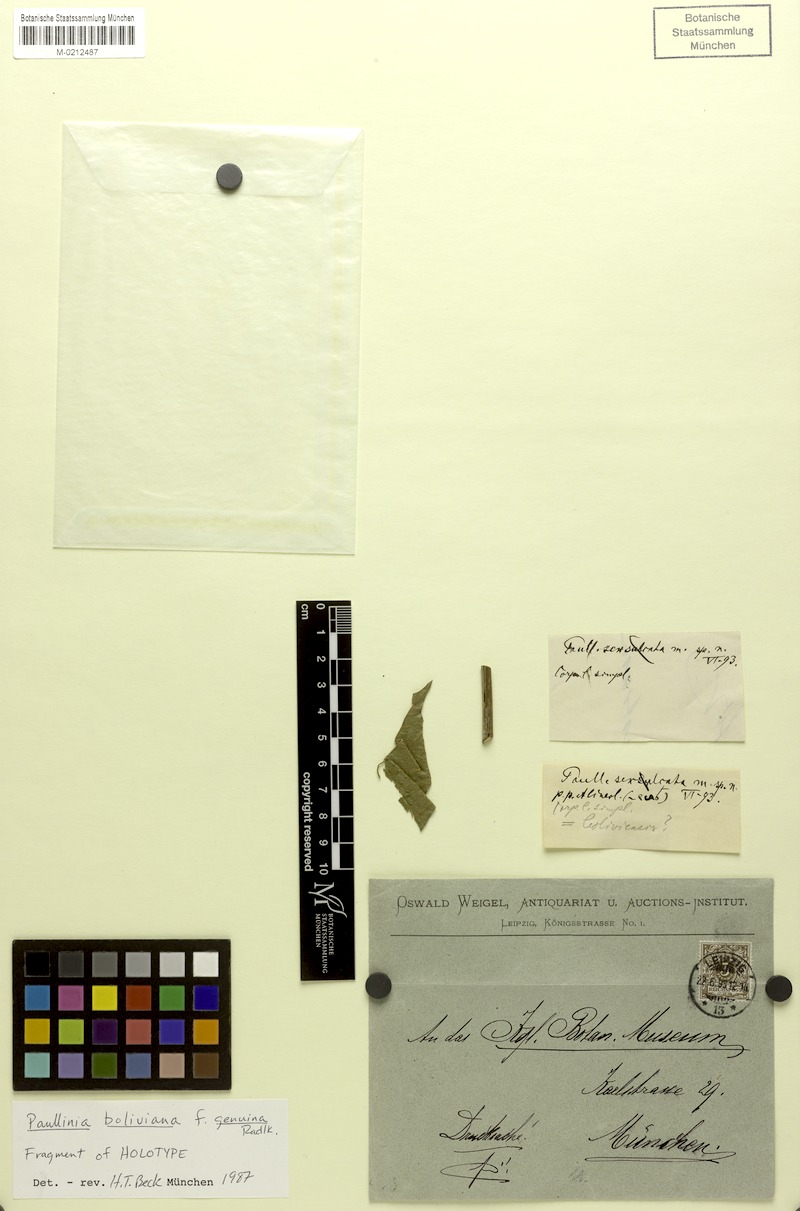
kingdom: Plantae
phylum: Tracheophyta
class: Magnoliopsida
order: Sapindales
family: Sapindaceae
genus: Paullinia
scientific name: Paullinia boliviana
